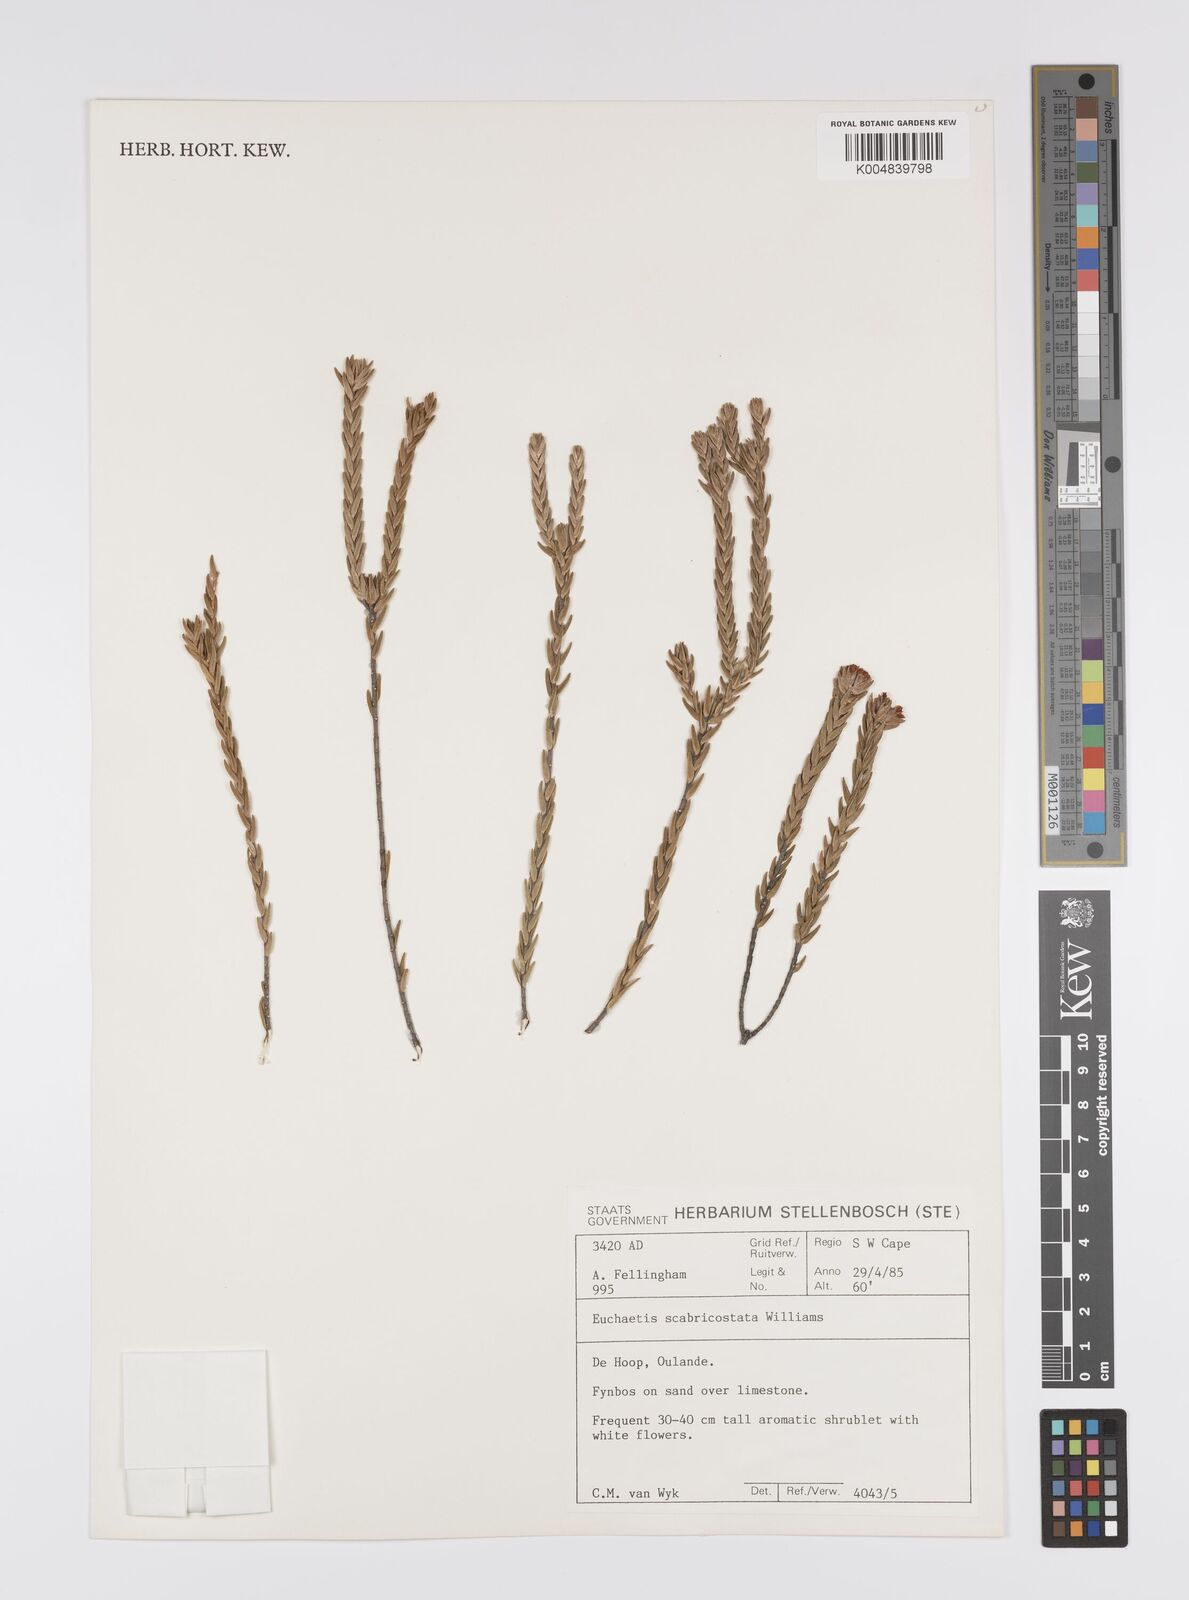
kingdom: Plantae
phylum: Tracheophyta
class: Magnoliopsida
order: Sapindales
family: Rutaceae
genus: Euchaetis
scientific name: Euchaetis scabricosta
